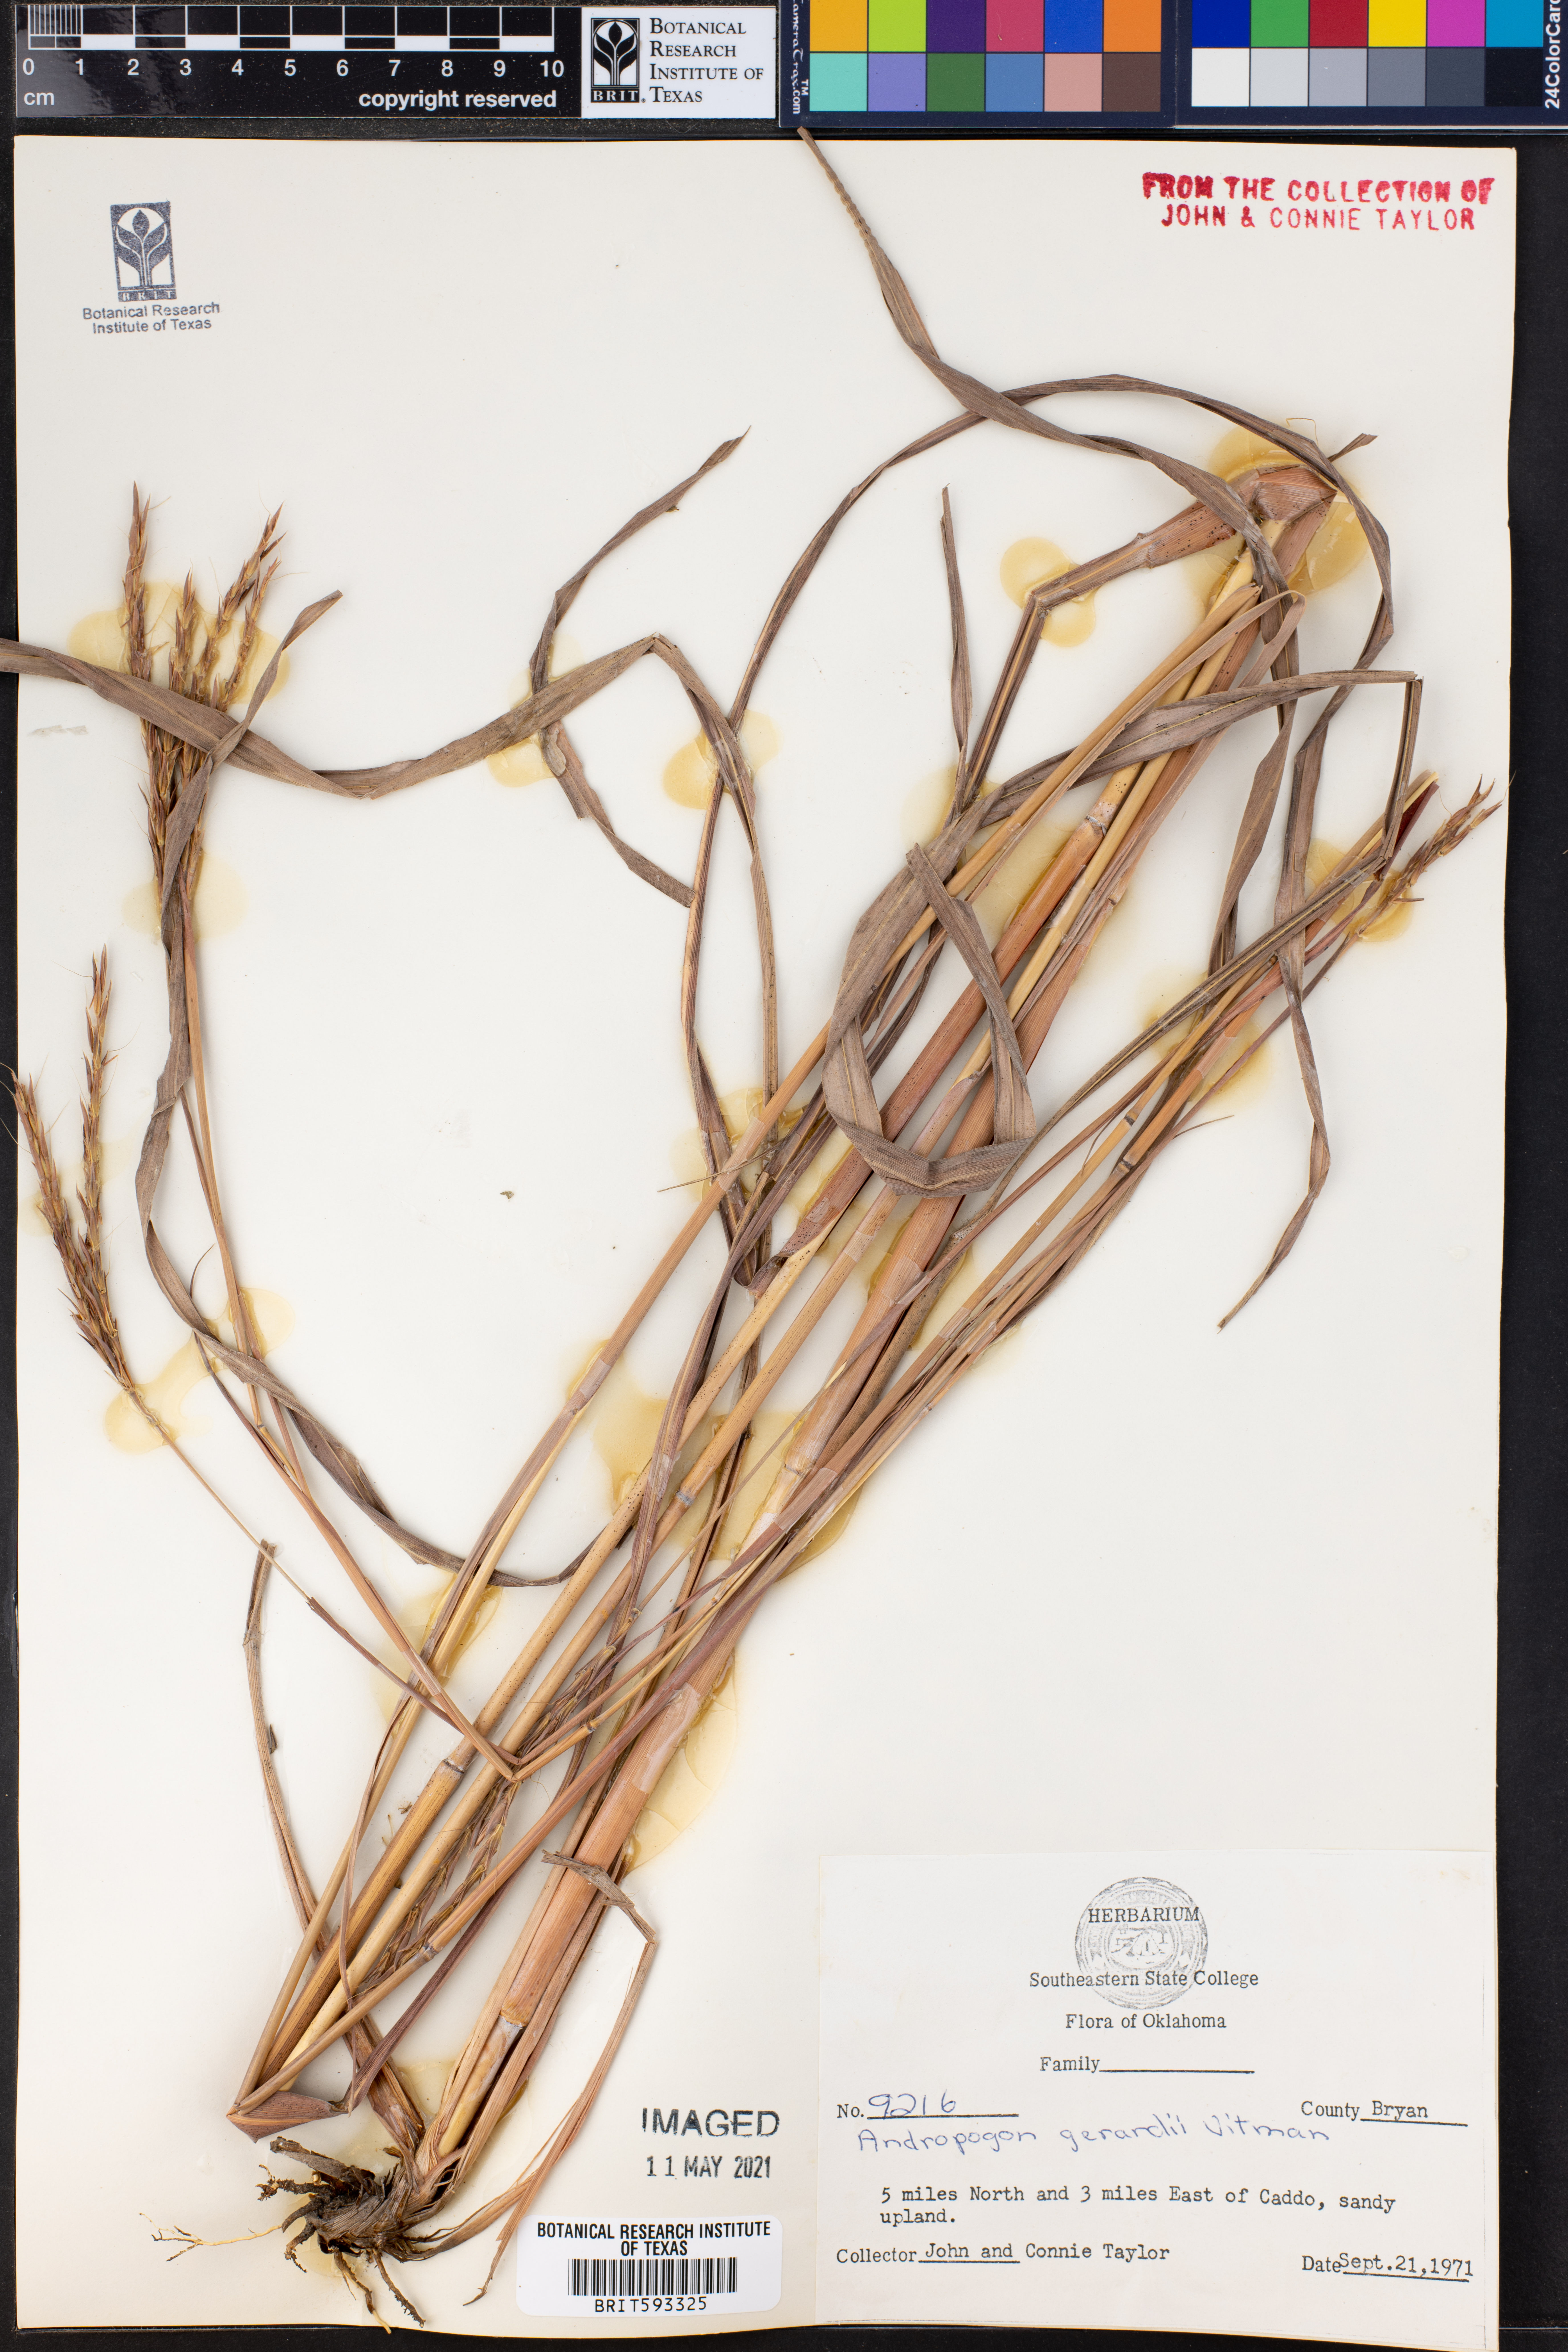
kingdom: Plantae
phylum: Tracheophyta
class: Liliopsida
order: Poales
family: Poaceae
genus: Andropogon
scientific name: Andropogon gerardi
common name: Big bluestem
